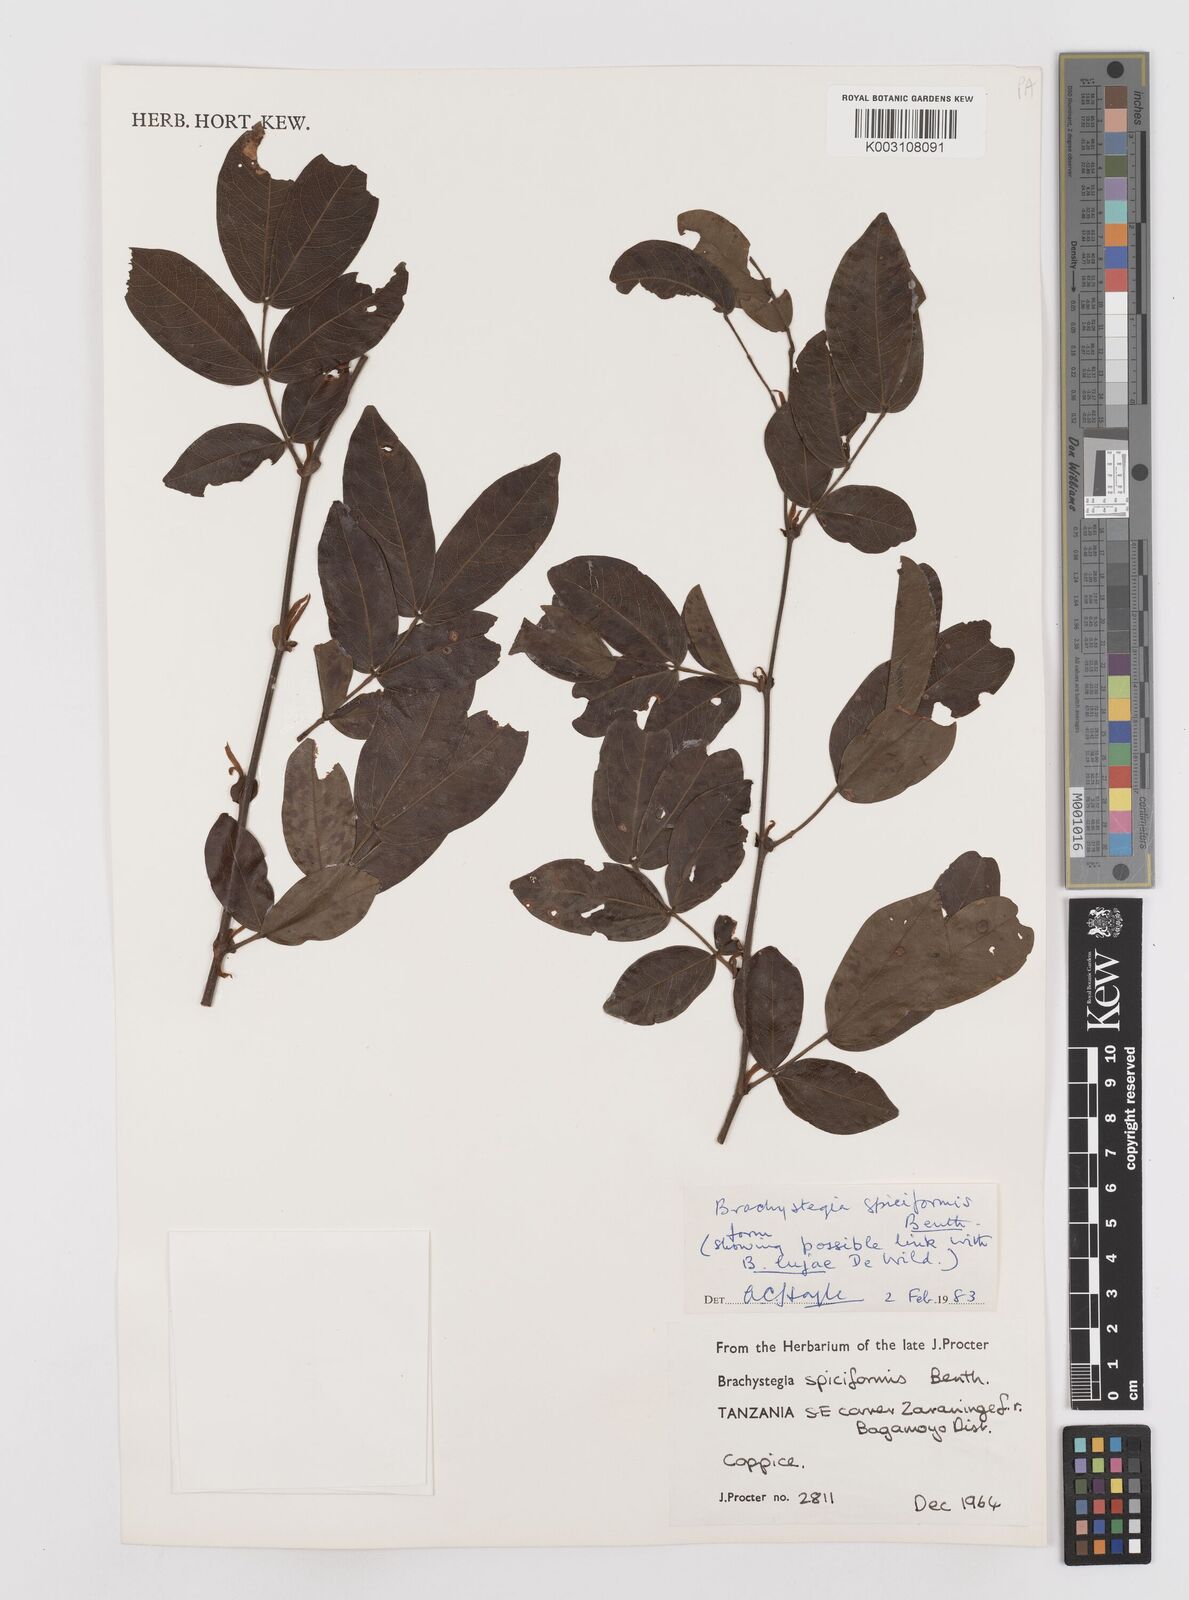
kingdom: Plantae
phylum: Tracheophyta
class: Magnoliopsida
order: Fabales
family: Fabaceae
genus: Brachystegia
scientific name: Brachystegia spiciformis
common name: Zebrawood
